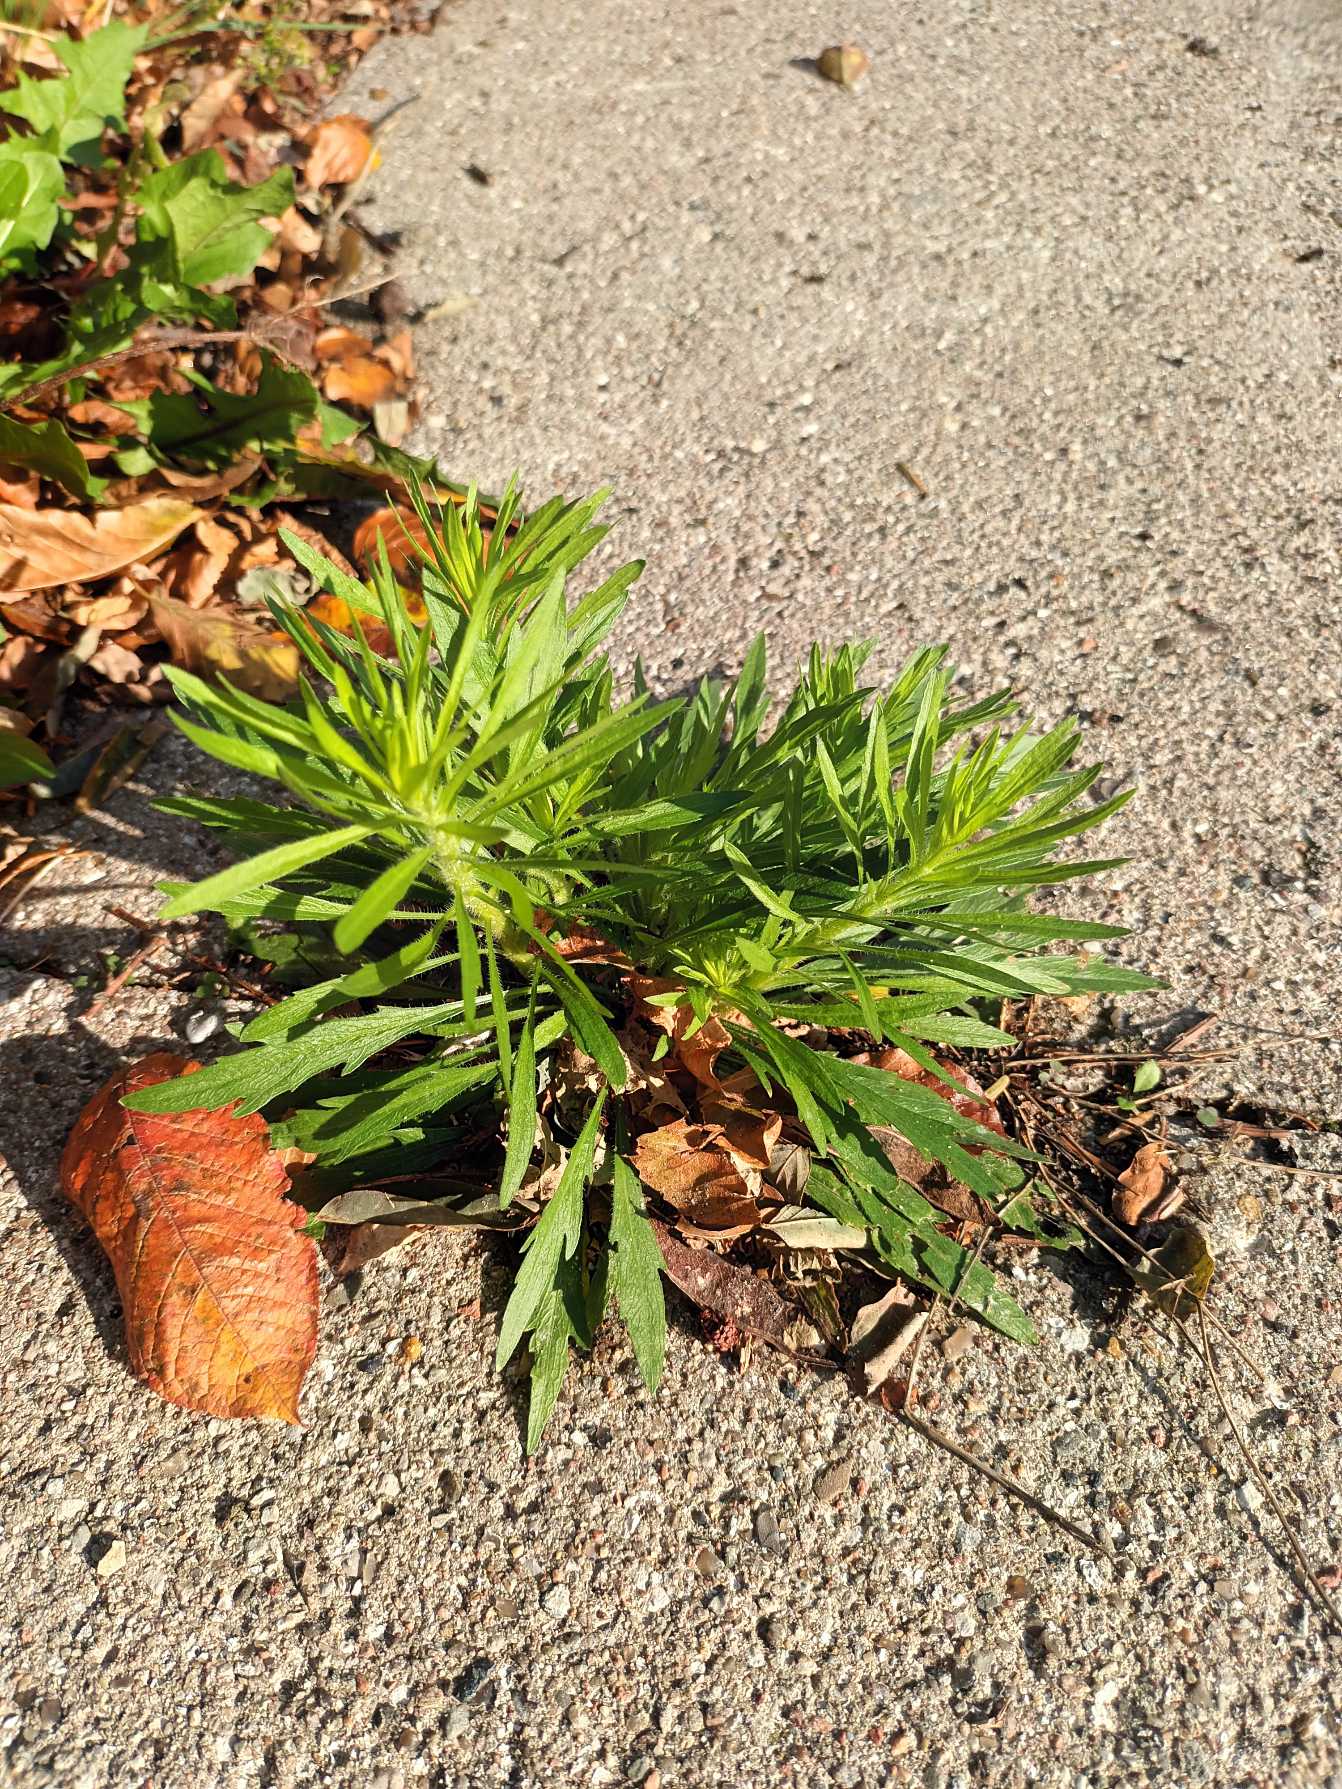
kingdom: Plantae
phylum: Tracheophyta
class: Magnoliopsida
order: Asterales
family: Asteraceae
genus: Erigeron
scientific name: Erigeron canadensis
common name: Kanadisk bakkestjerne
